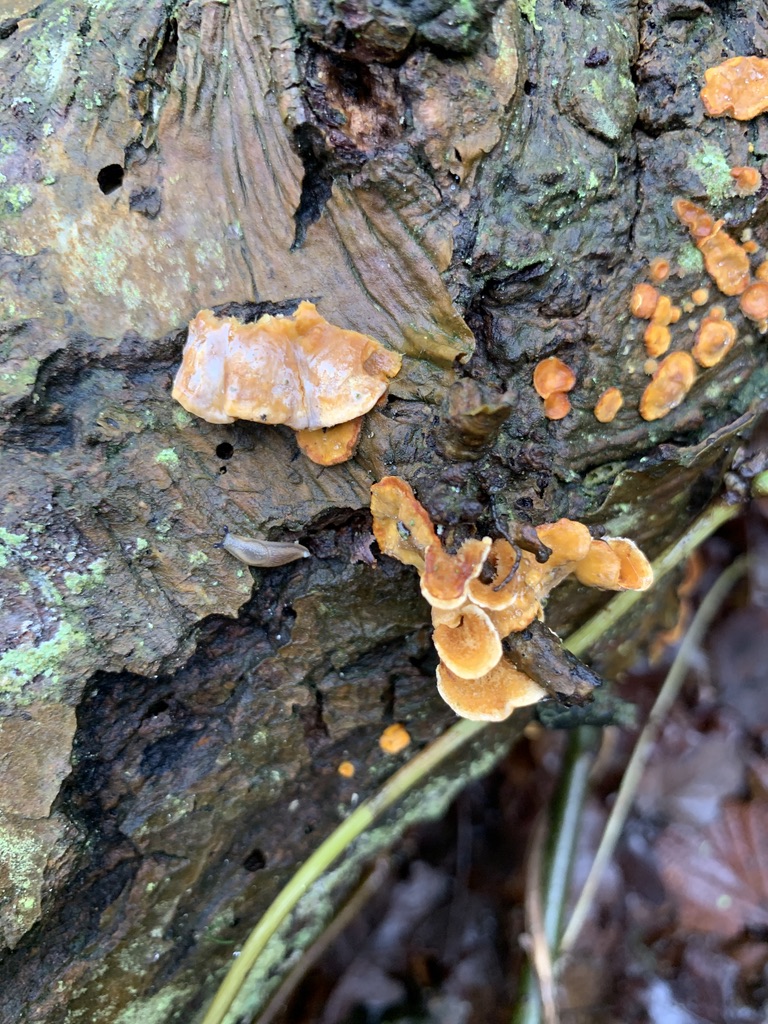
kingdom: Fungi
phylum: Basidiomycota
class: Agaricomycetes
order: Russulales
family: Stereaceae
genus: Stereum
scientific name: Stereum hirsutum
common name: håret lædersvamp
